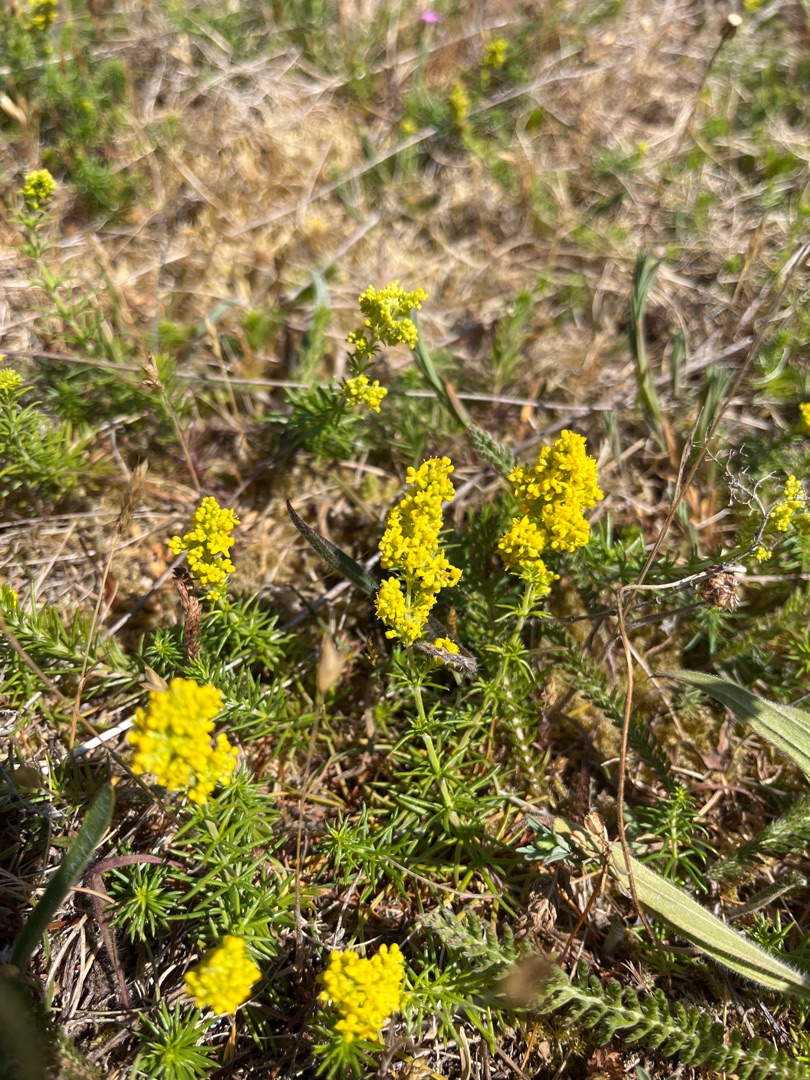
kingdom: Plantae
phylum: Tracheophyta
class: Magnoliopsida
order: Gentianales
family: Rubiaceae
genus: Galium
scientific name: Galium verum
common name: Gul snerre
